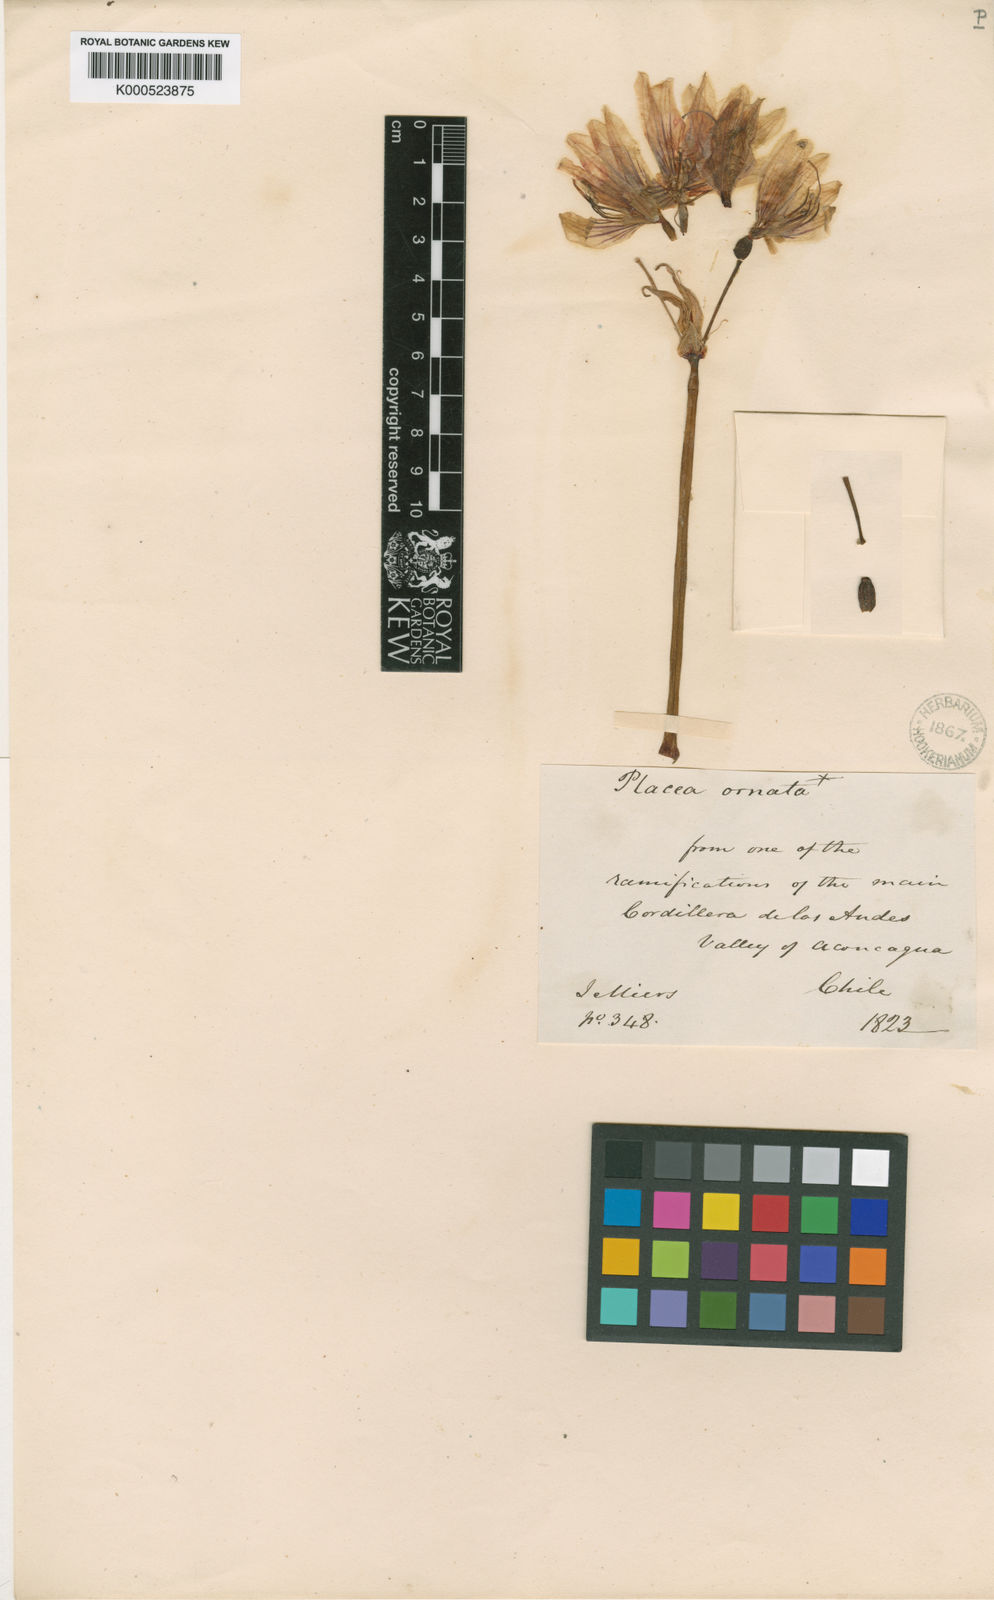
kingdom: Plantae
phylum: Tracheophyta
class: Liliopsida
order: Asparagales
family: Amaryllidaceae
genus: Phycella
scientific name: Phycella ornata
